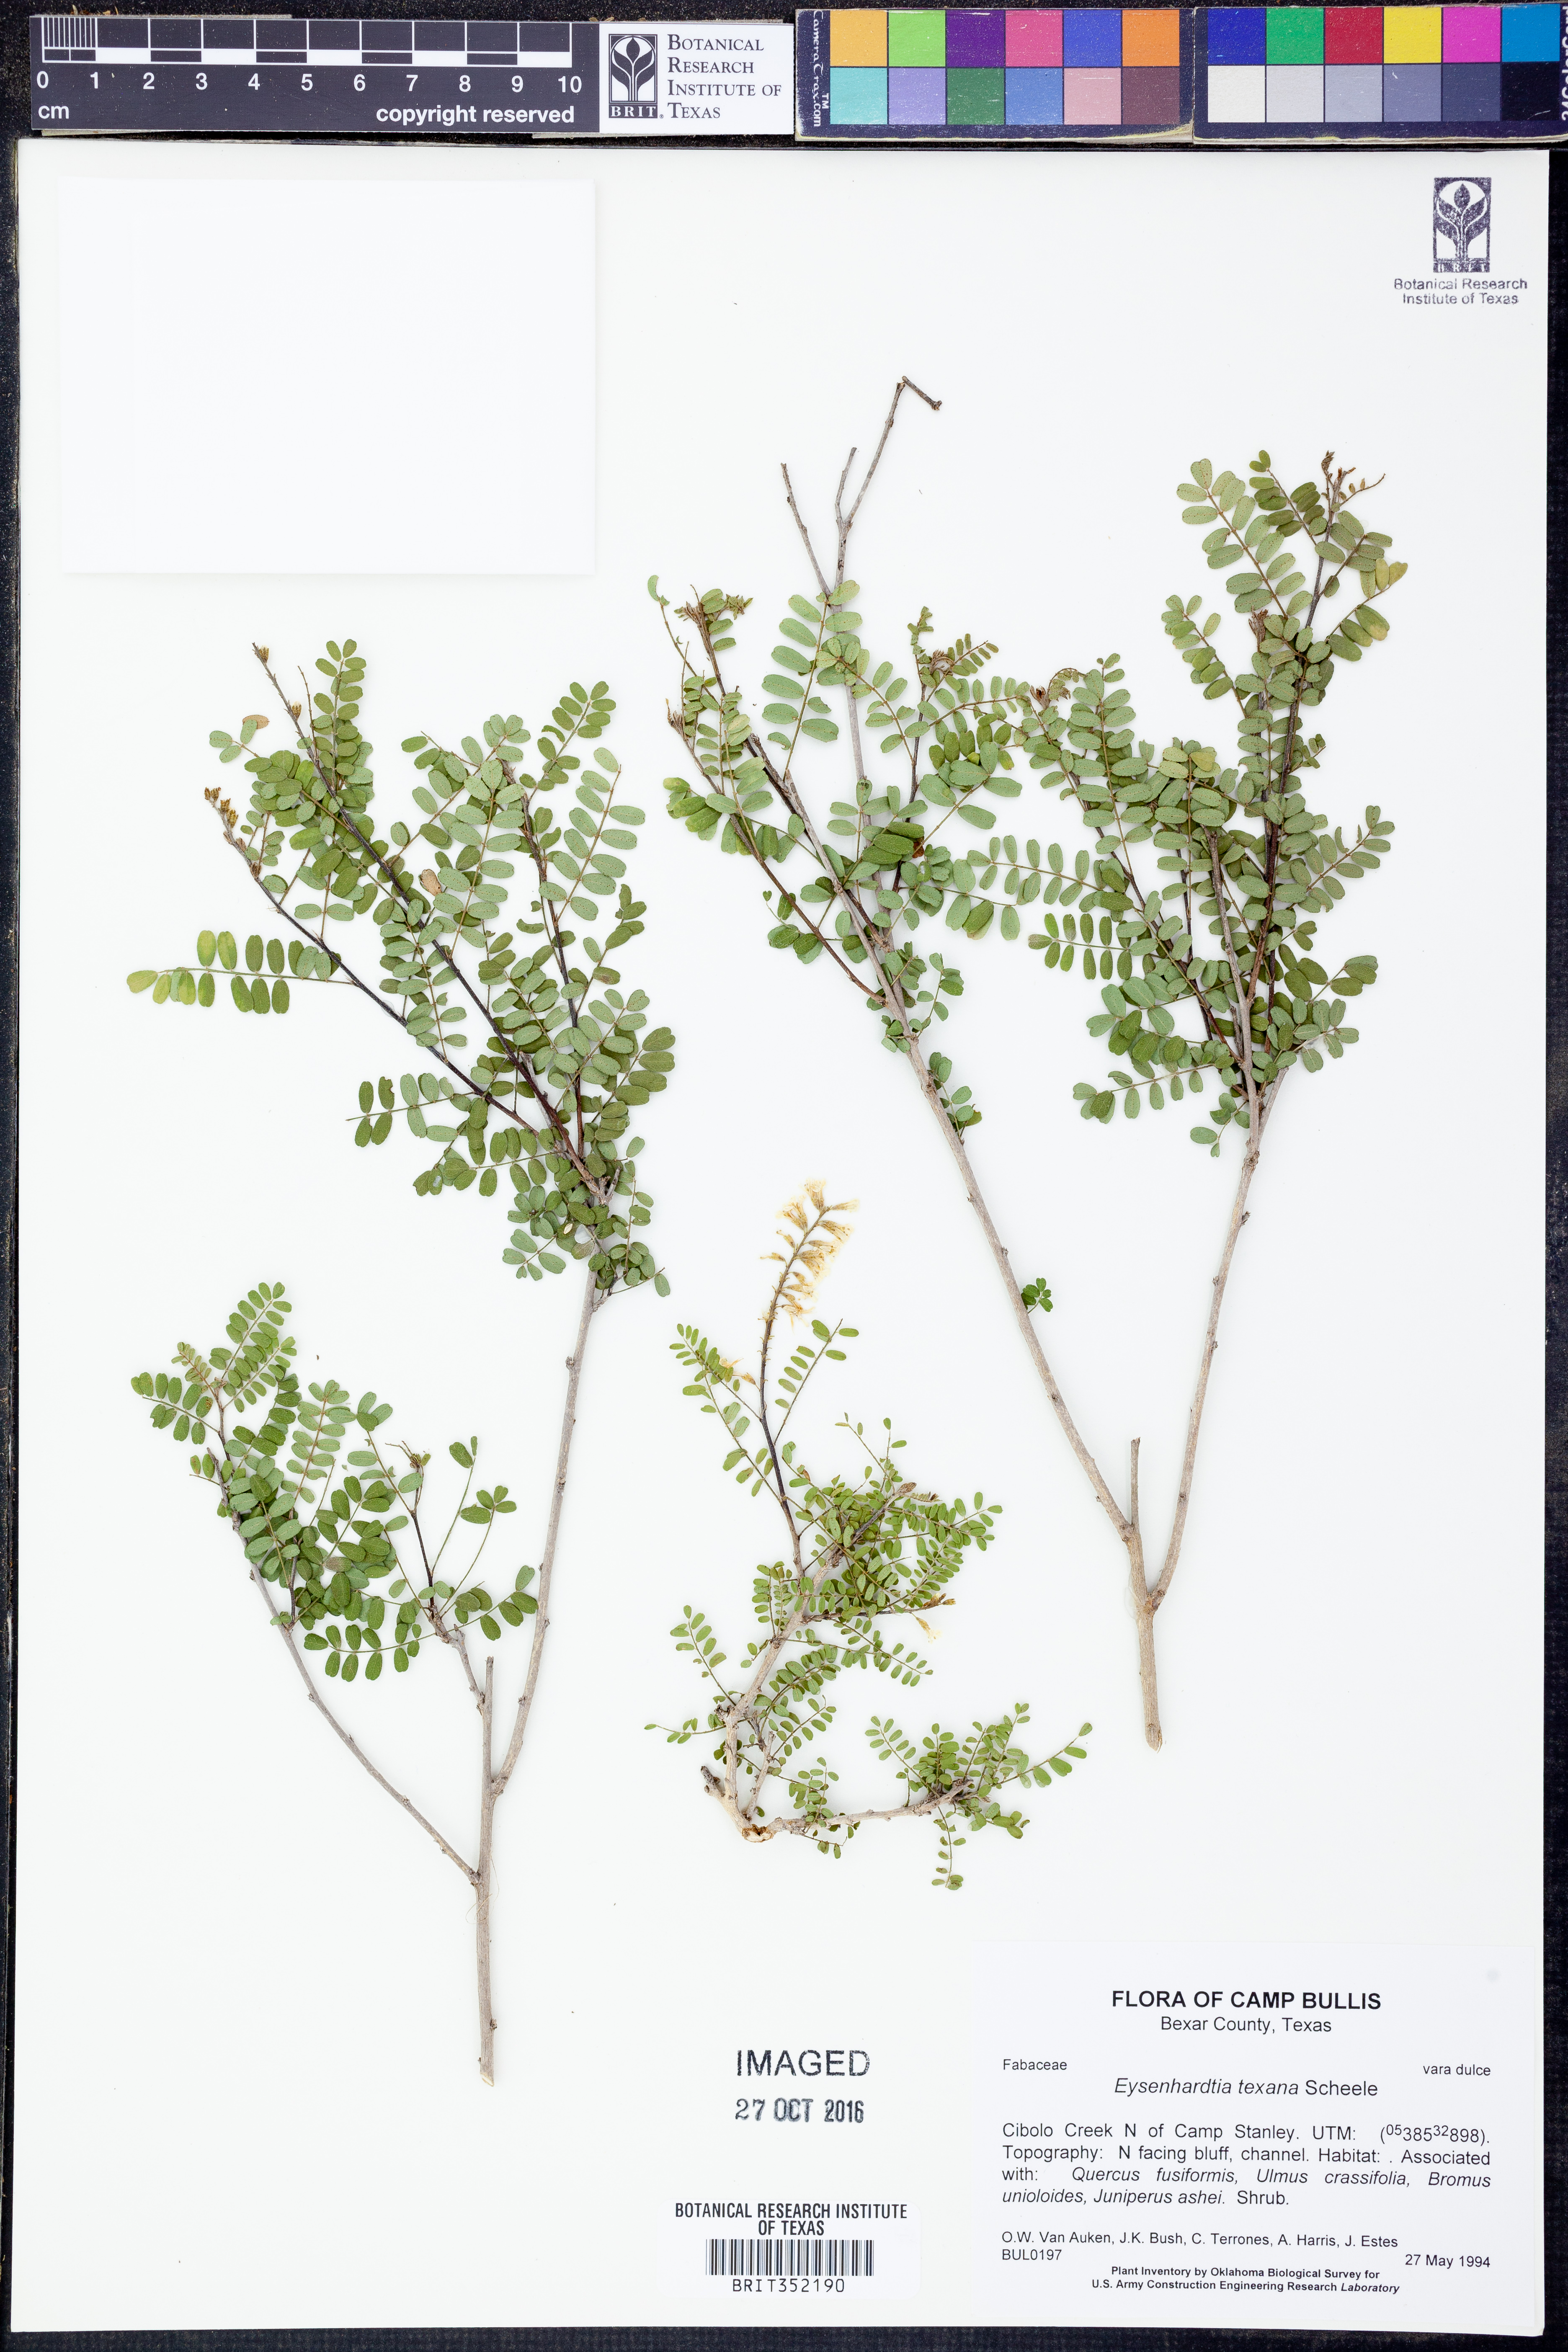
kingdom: Plantae
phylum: Tracheophyta
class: Magnoliopsida
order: Fabales
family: Fabaceae
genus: Eysenhardtia
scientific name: Eysenhardtia texana
